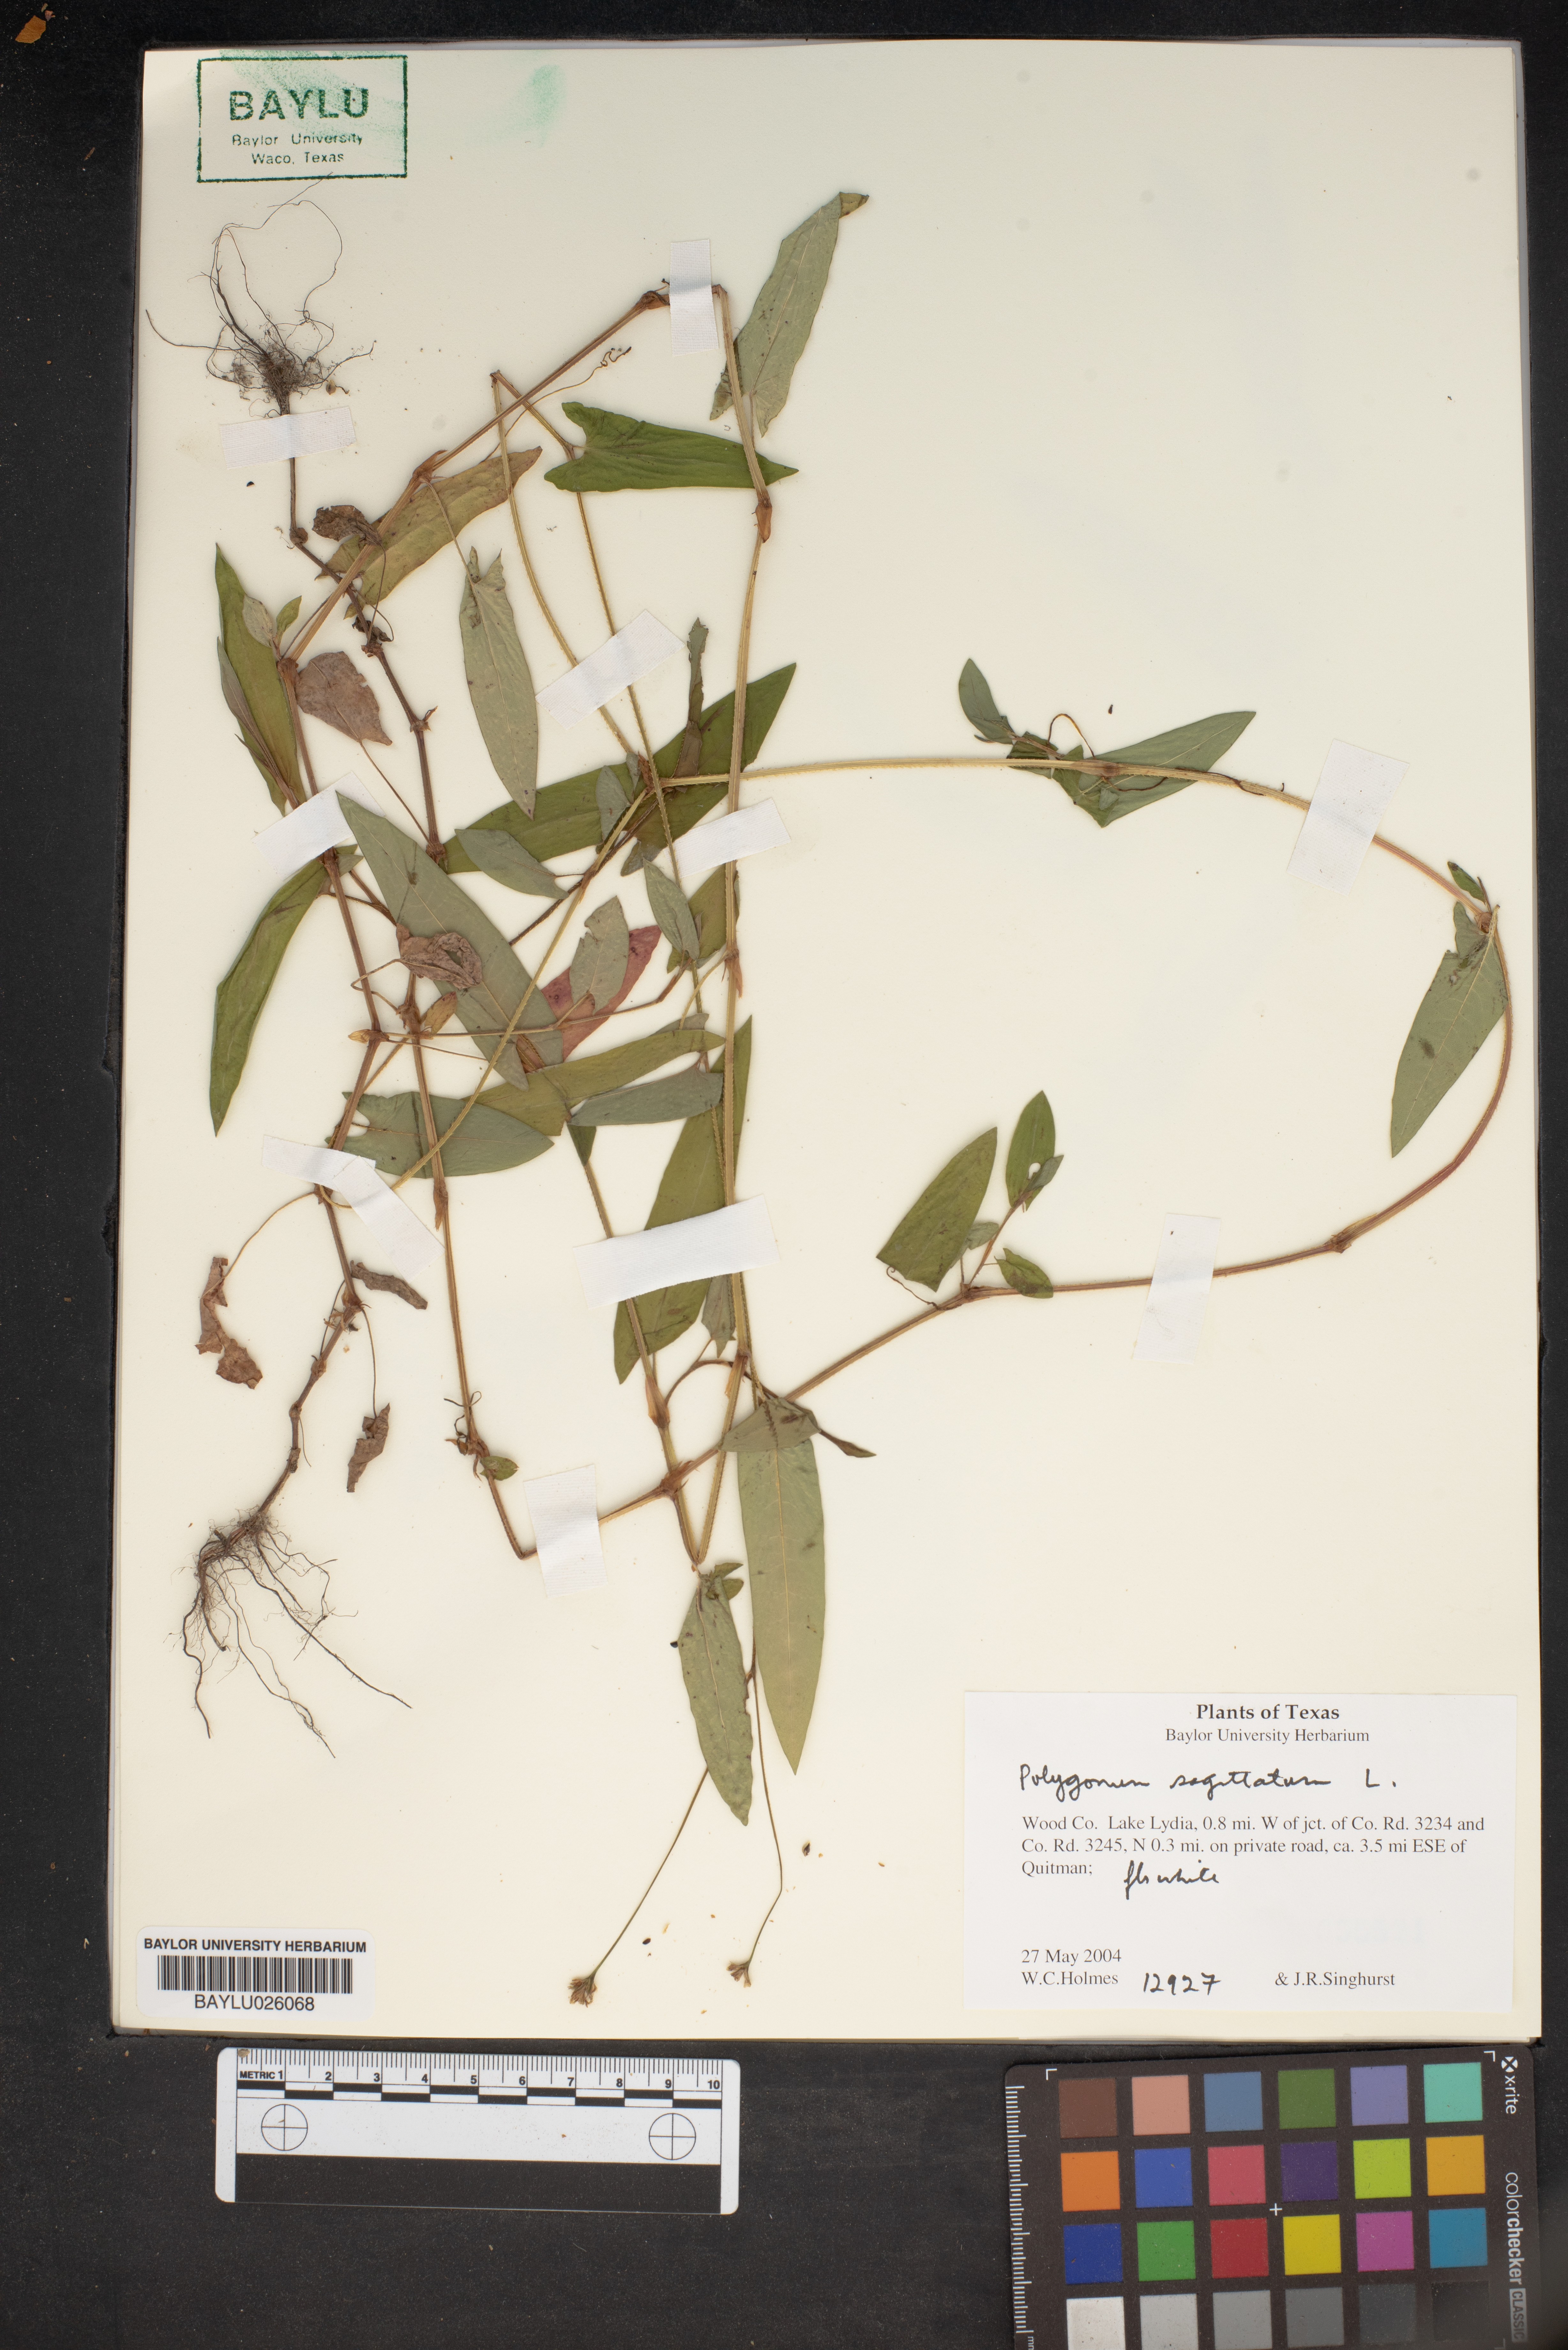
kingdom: Plantae
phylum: Tracheophyta
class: Magnoliopsida
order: Caryophyllales
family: Polygonaceae
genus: Persicaria
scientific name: Persicaria sagittata
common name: American tearthumb
